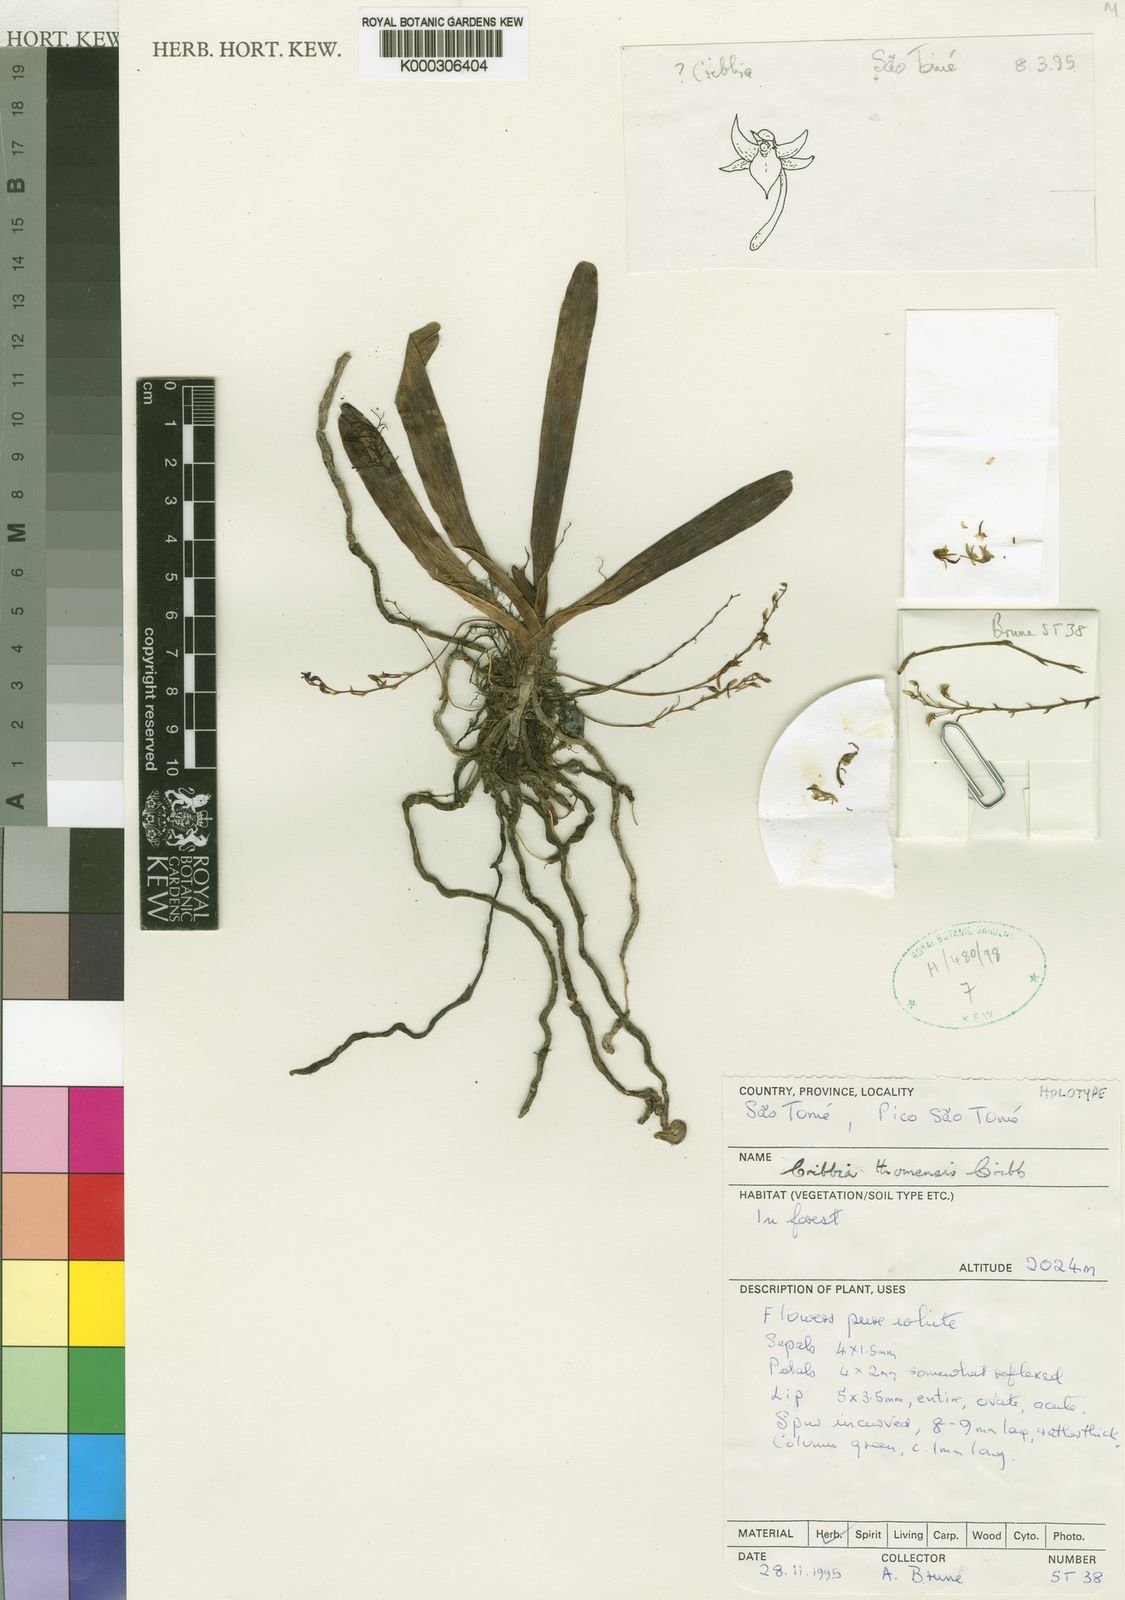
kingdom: Plantae
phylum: Tracheophyta
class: Liliopsida
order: Asparagales
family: Orchidaceae
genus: Rhipidoglossum
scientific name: Rhipidoglossum thomense
